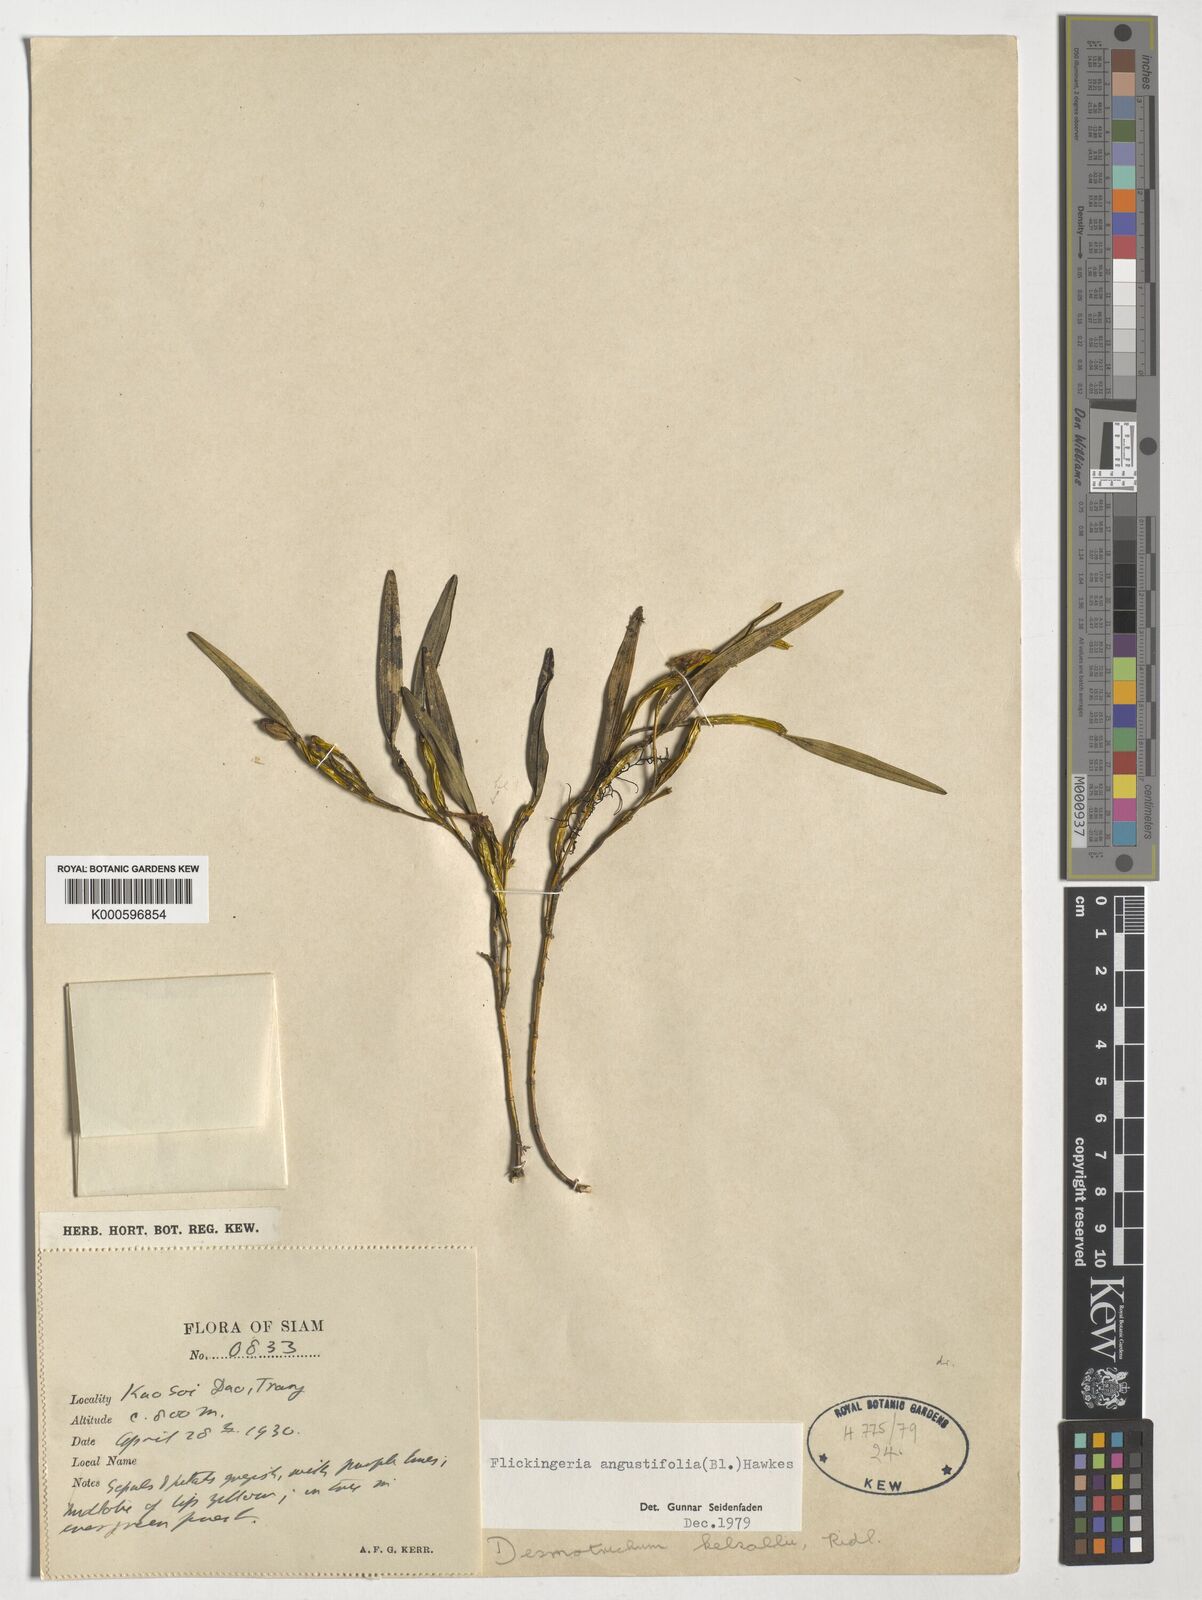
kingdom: Plantae
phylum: Tracheophyta
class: Liliopsida
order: Asparagales
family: Orchidaceae
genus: Dendrobium
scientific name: Dendrobium angustifolium
